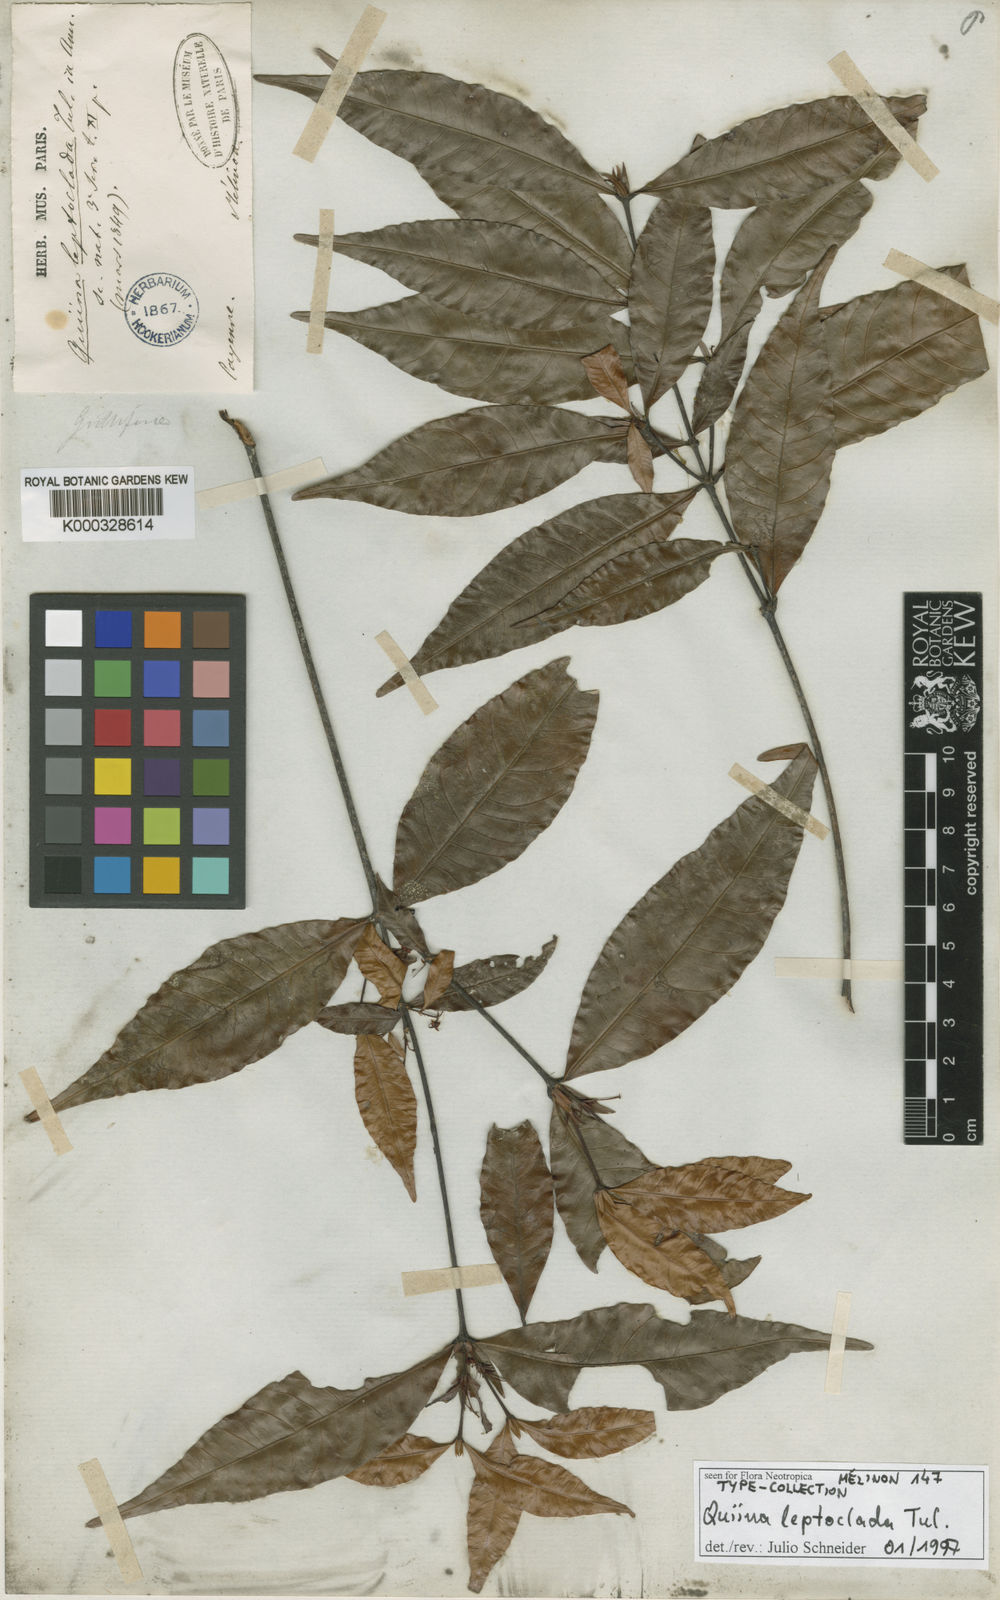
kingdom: Plantae
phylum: Tracheophyta
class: Magnoliopsida
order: Malpighiales
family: Quiinaceae
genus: Quiina
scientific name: Quiina leptoclada
